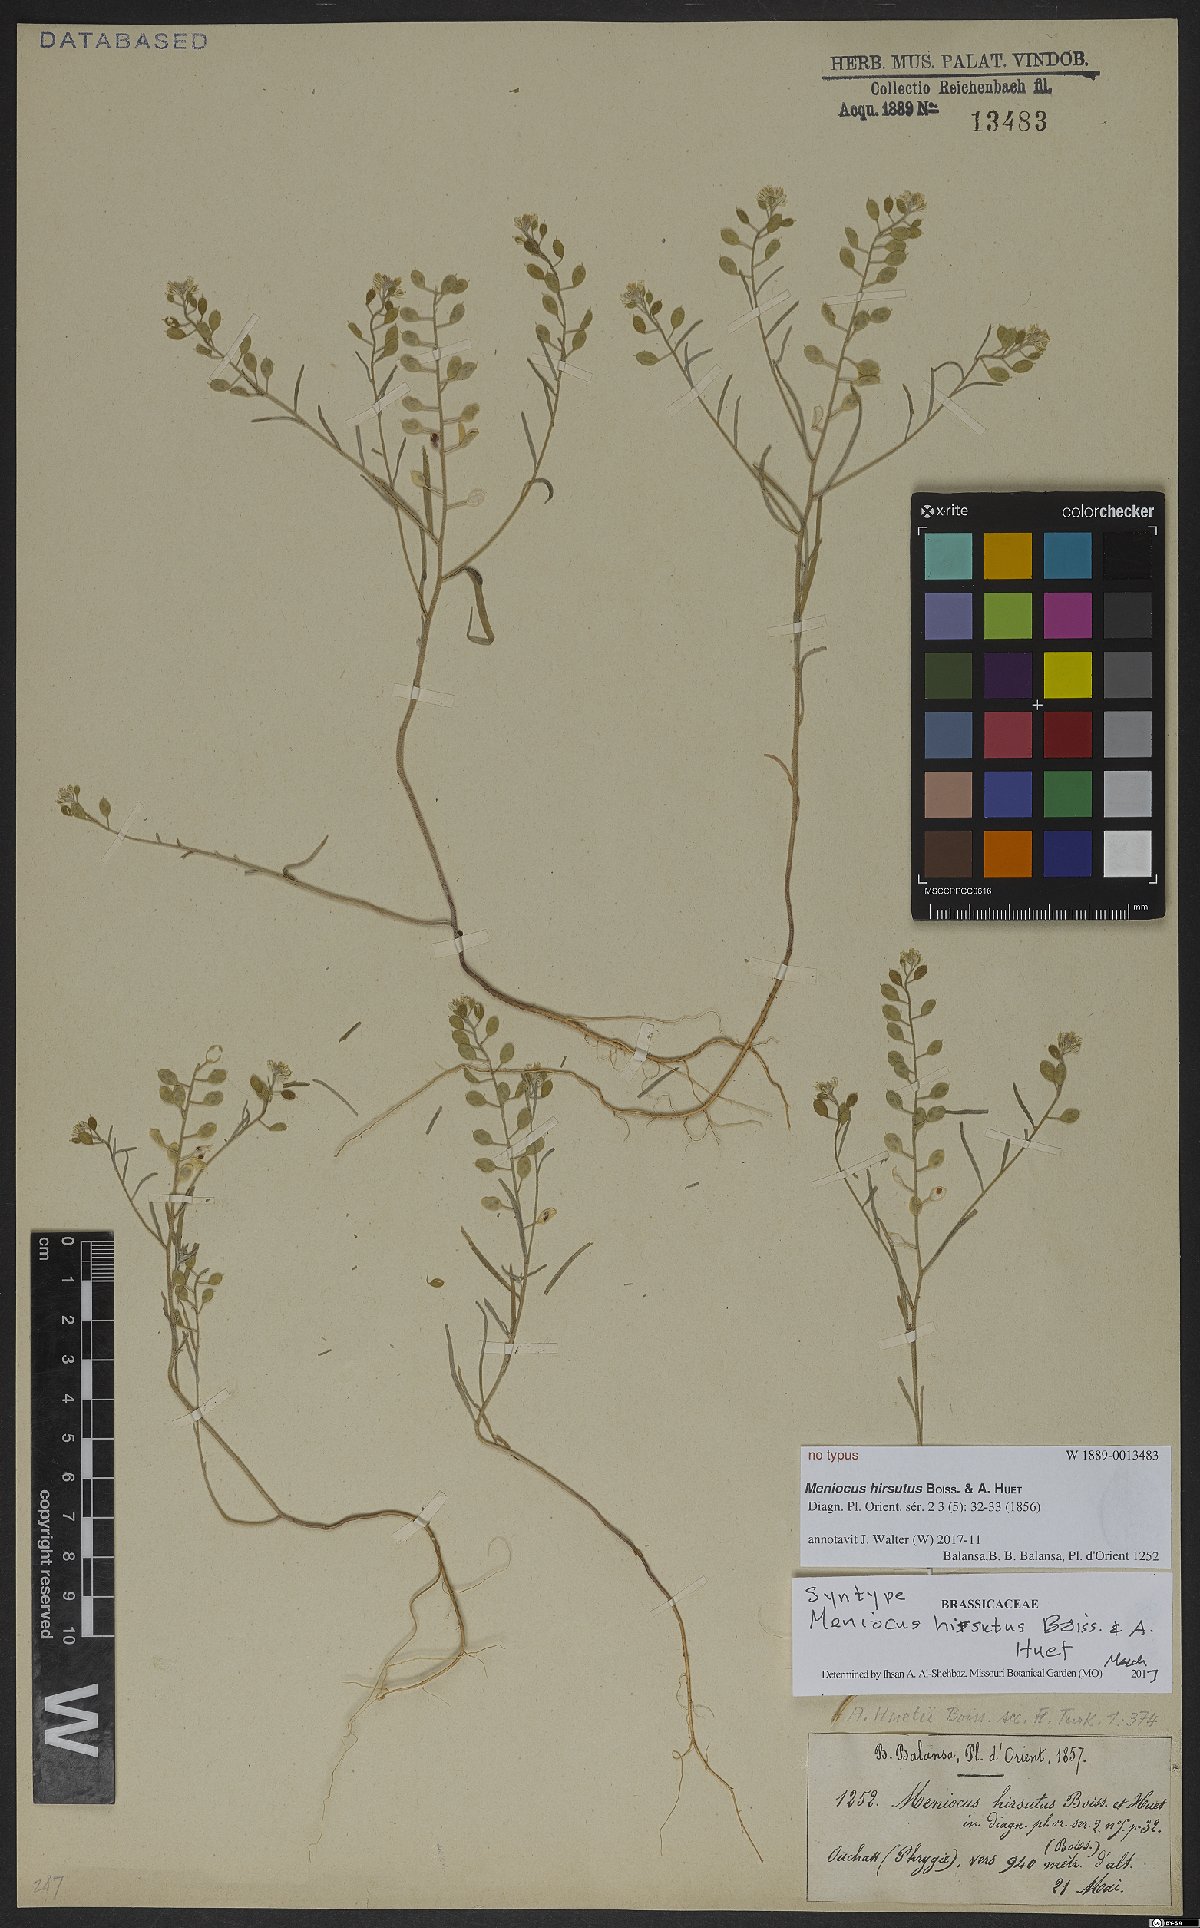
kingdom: Plantae
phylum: Tracheophyta
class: Magnoliopsida
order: Brassicales
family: Brassicaceae
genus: Meniocus
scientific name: Meniocus hirsutus
